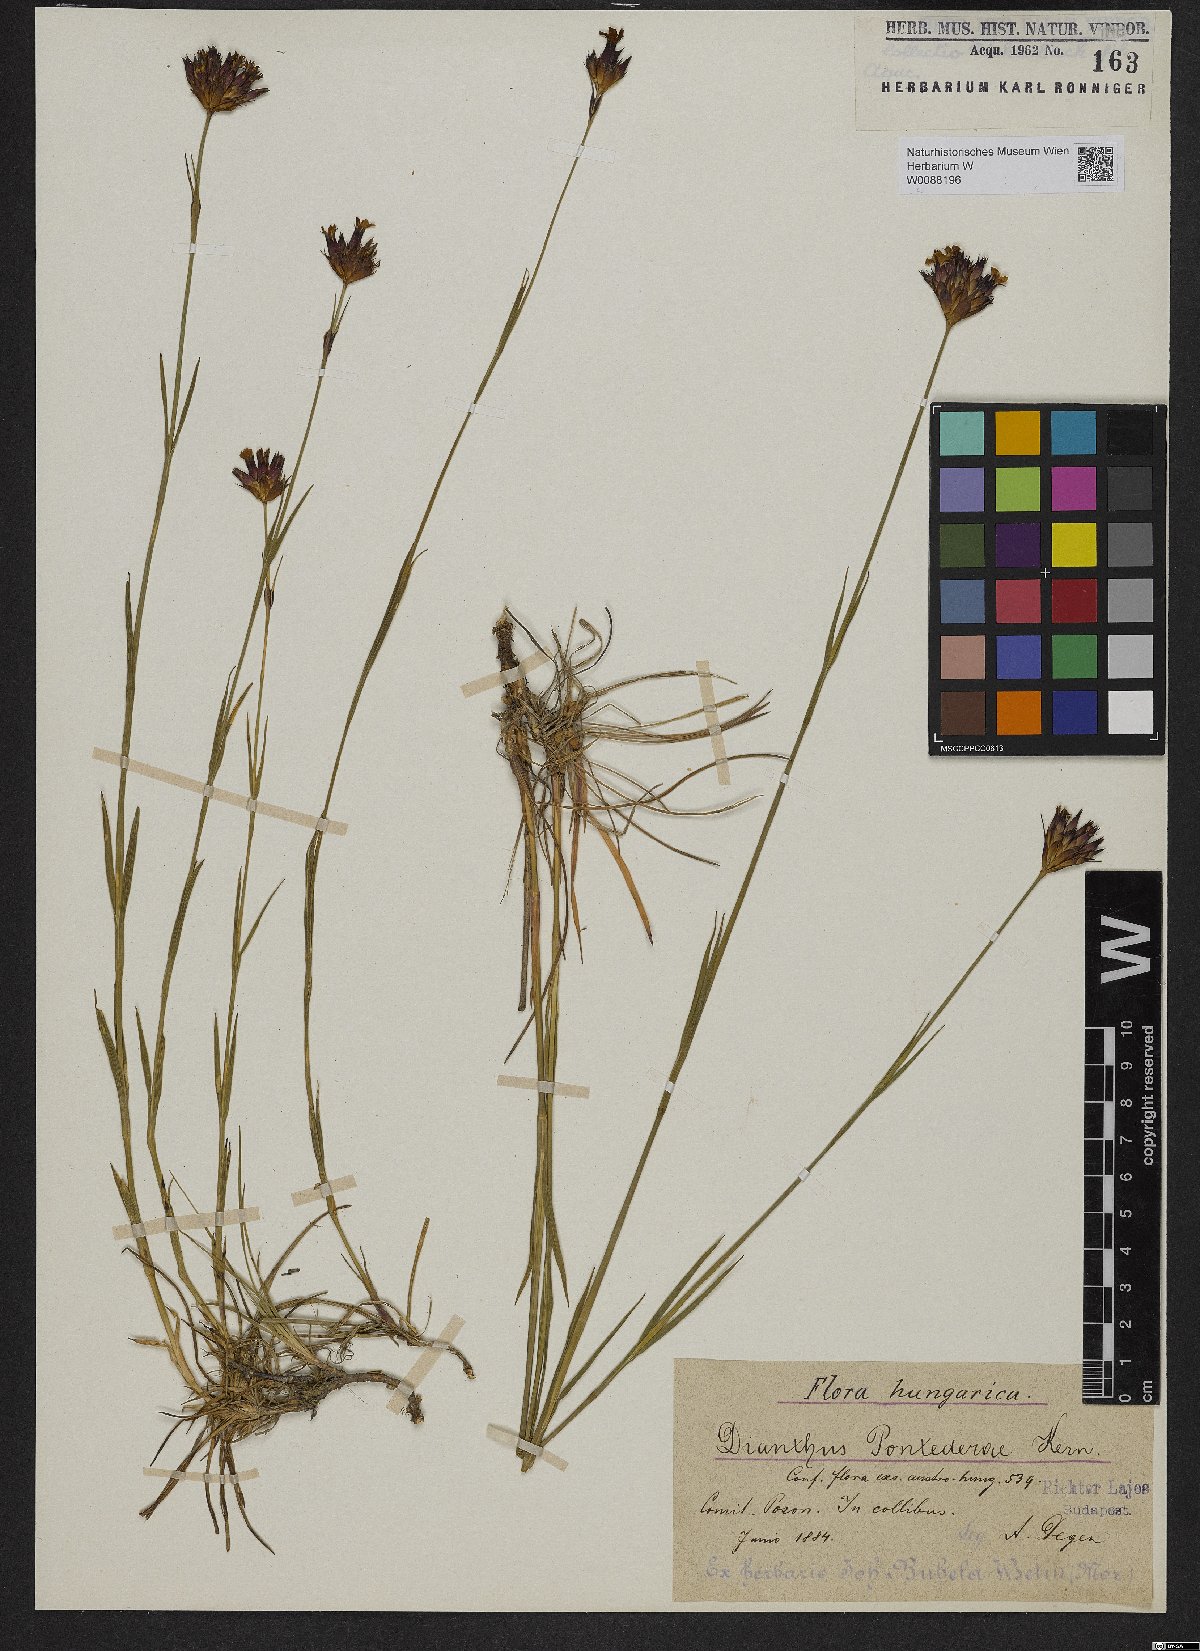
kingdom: Plantae
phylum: Tracheophyta
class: Magnoliopsida
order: Caryophyllales
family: Caryophyllaceae
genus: Dianthus
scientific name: Dianthus pontederae
